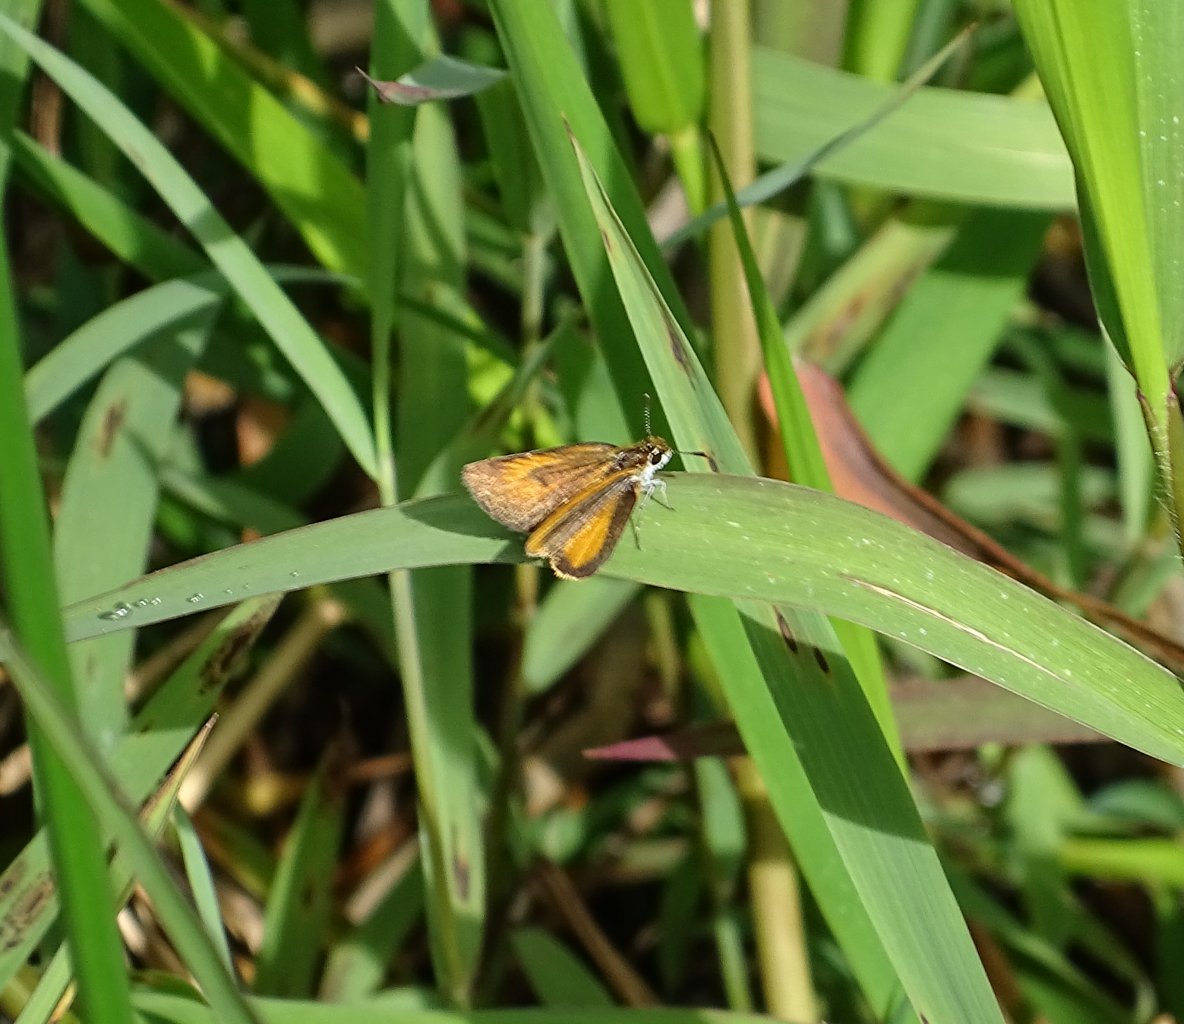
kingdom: Animalia
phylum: Arthropoda
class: Insecta
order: Lepidoptera
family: Hesperiidae
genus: Ancyloxypha
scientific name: Ancyloxypha numitor
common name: Least Skipper
